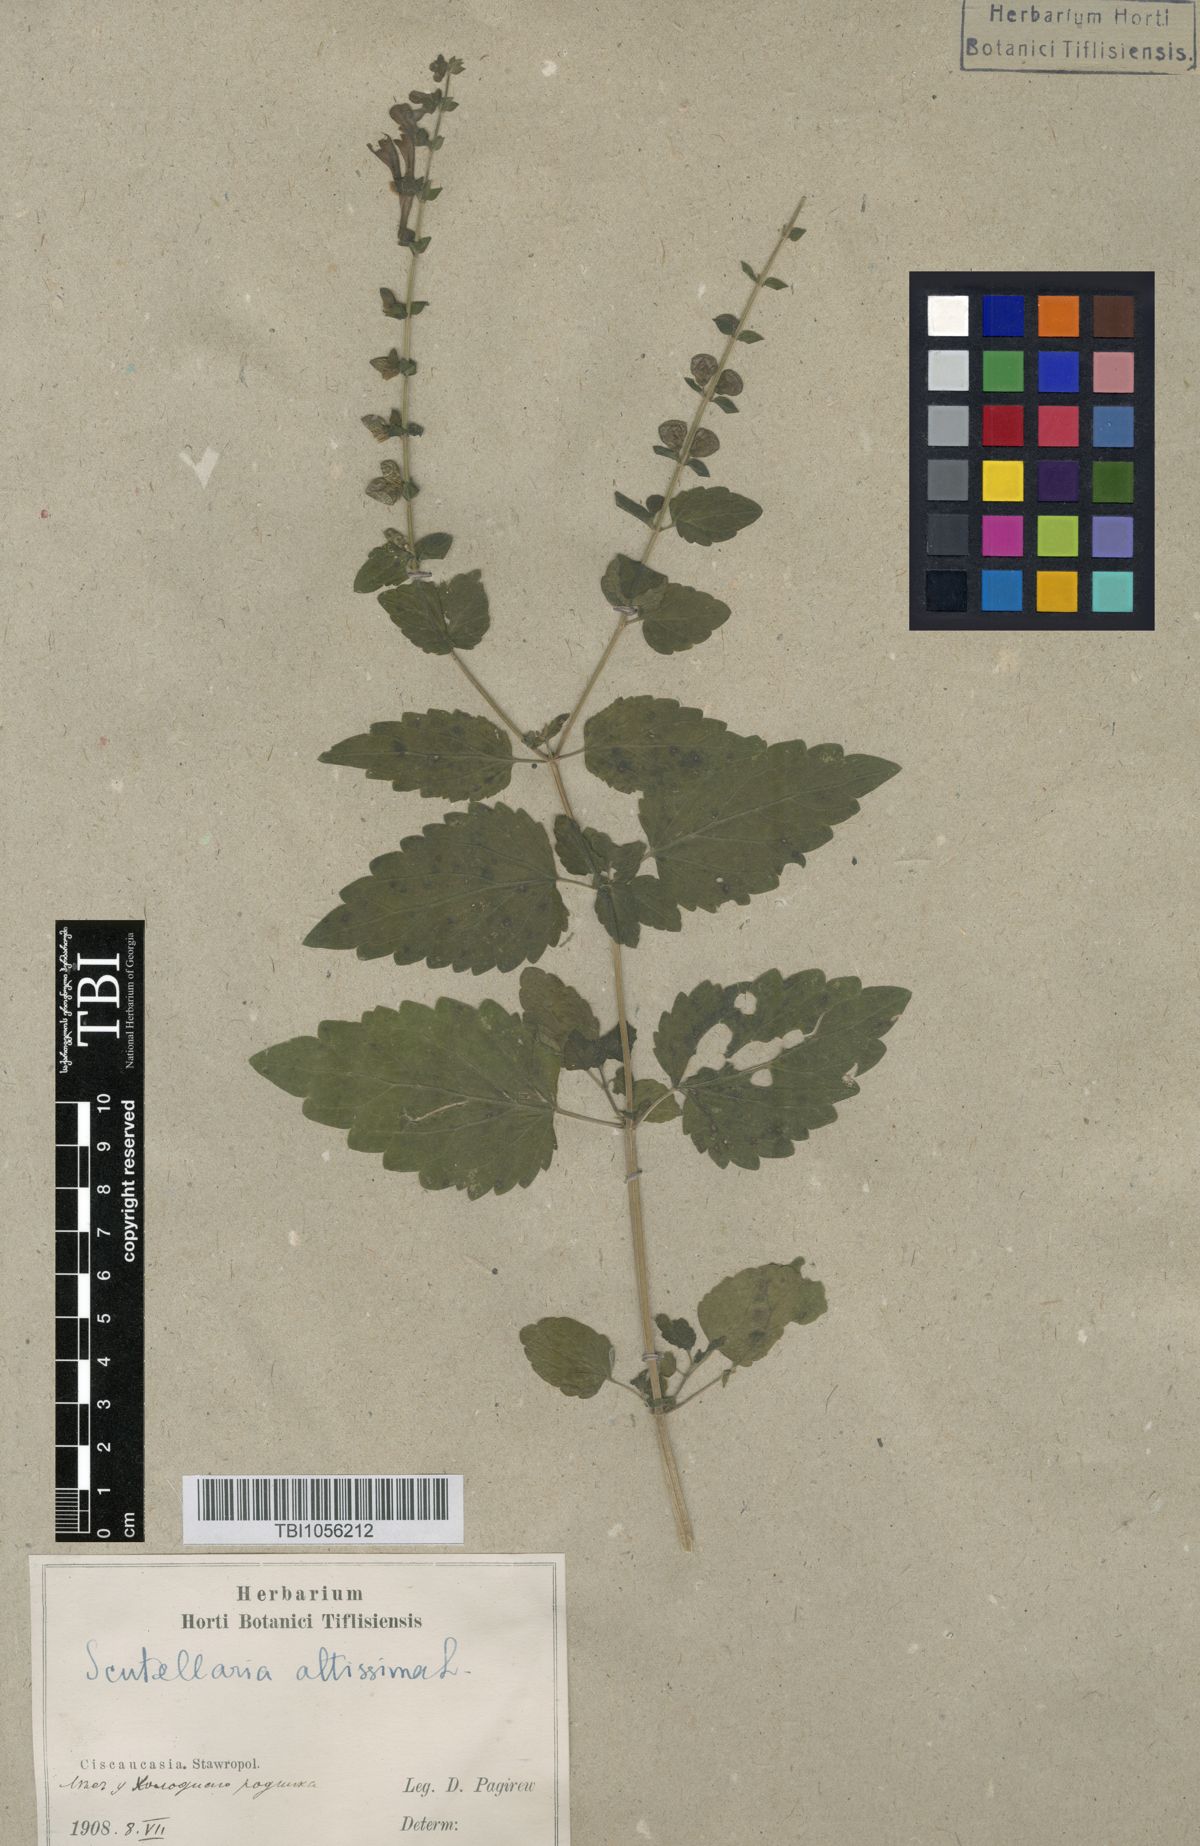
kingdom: Plantae
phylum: Tracheophyta
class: Magnoliopsida
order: Lamiales
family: Lamiaceae
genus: Scutellaria
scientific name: Scutellaria altissima
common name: Somerset skullcap
